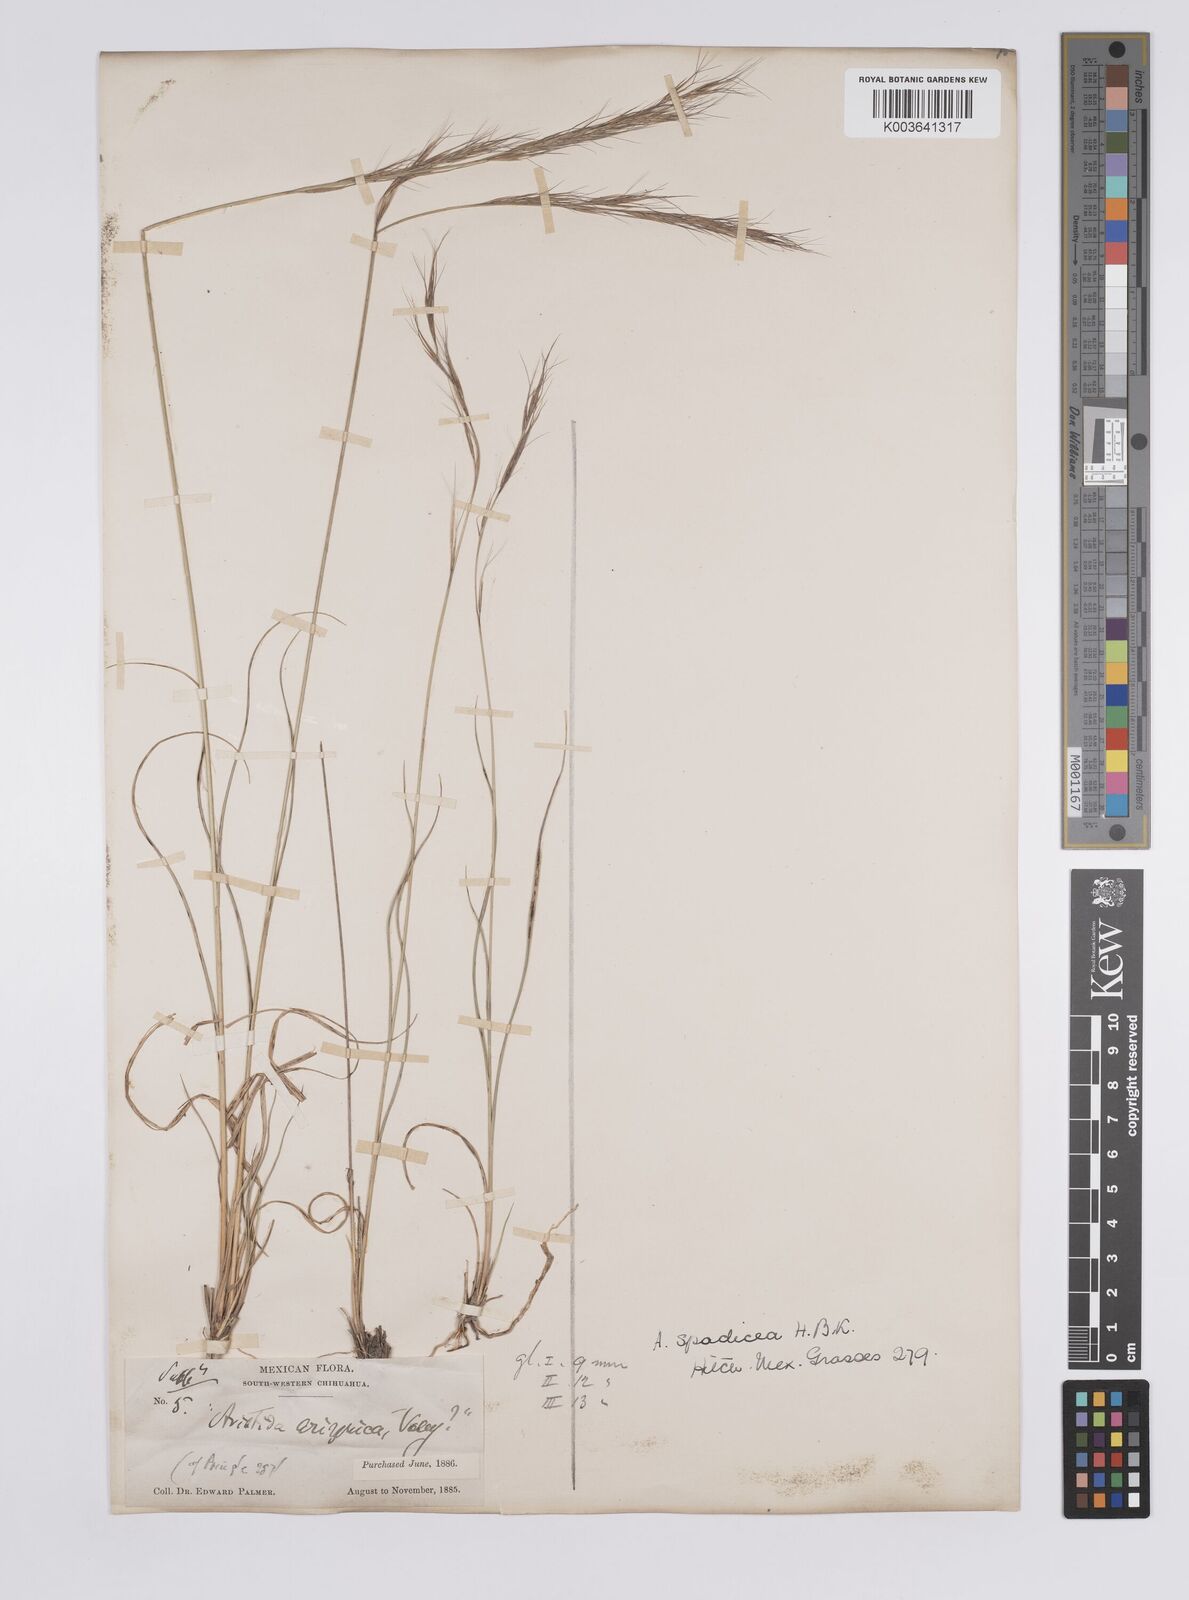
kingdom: Plantae
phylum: Tracheophyta
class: Liliopsida
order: Poales
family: Poaceae
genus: Aristida
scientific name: Aristida laxa
